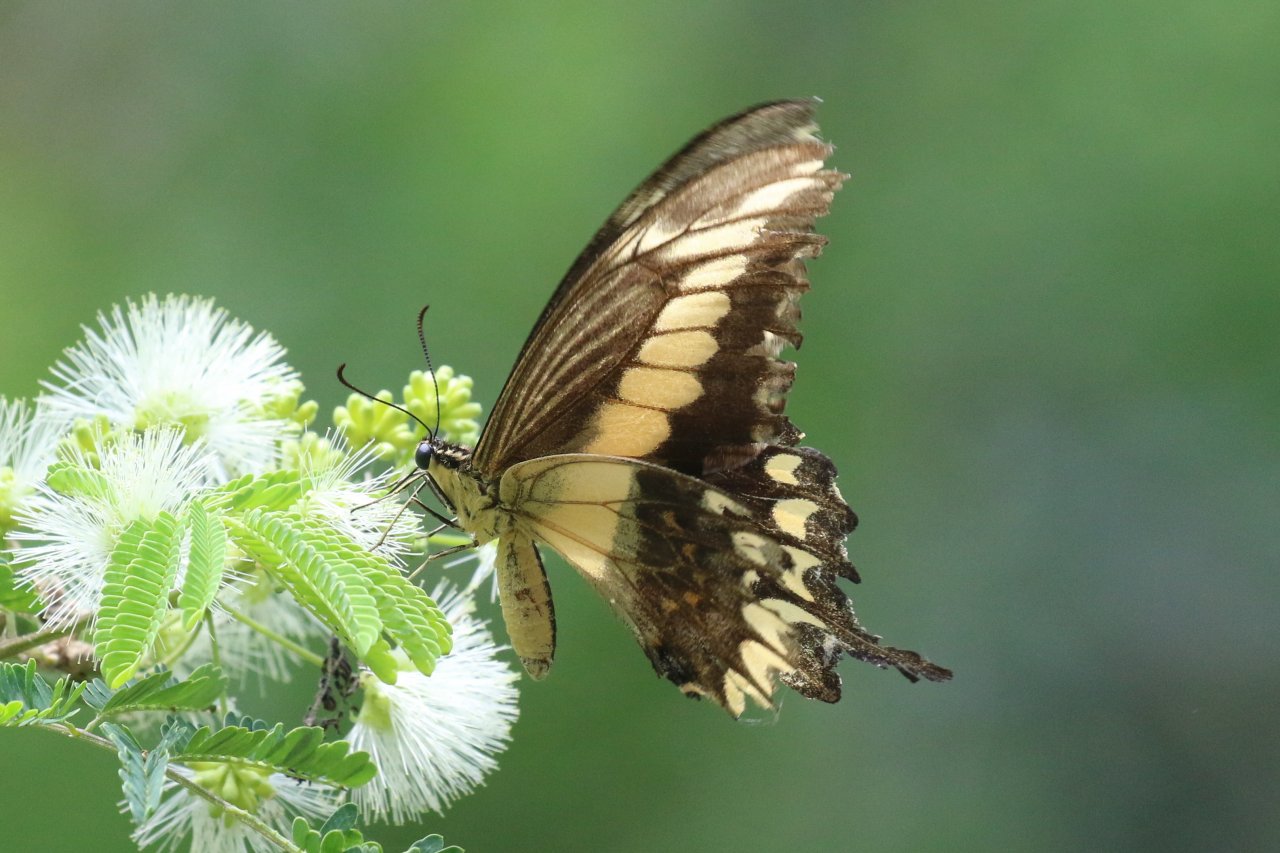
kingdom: Animalia
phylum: Arthropoda
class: Insecta
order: Lepidoptera
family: Papilionidae
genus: Papilio
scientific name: Papilio ornythion
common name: Ornythion Swallowtail
